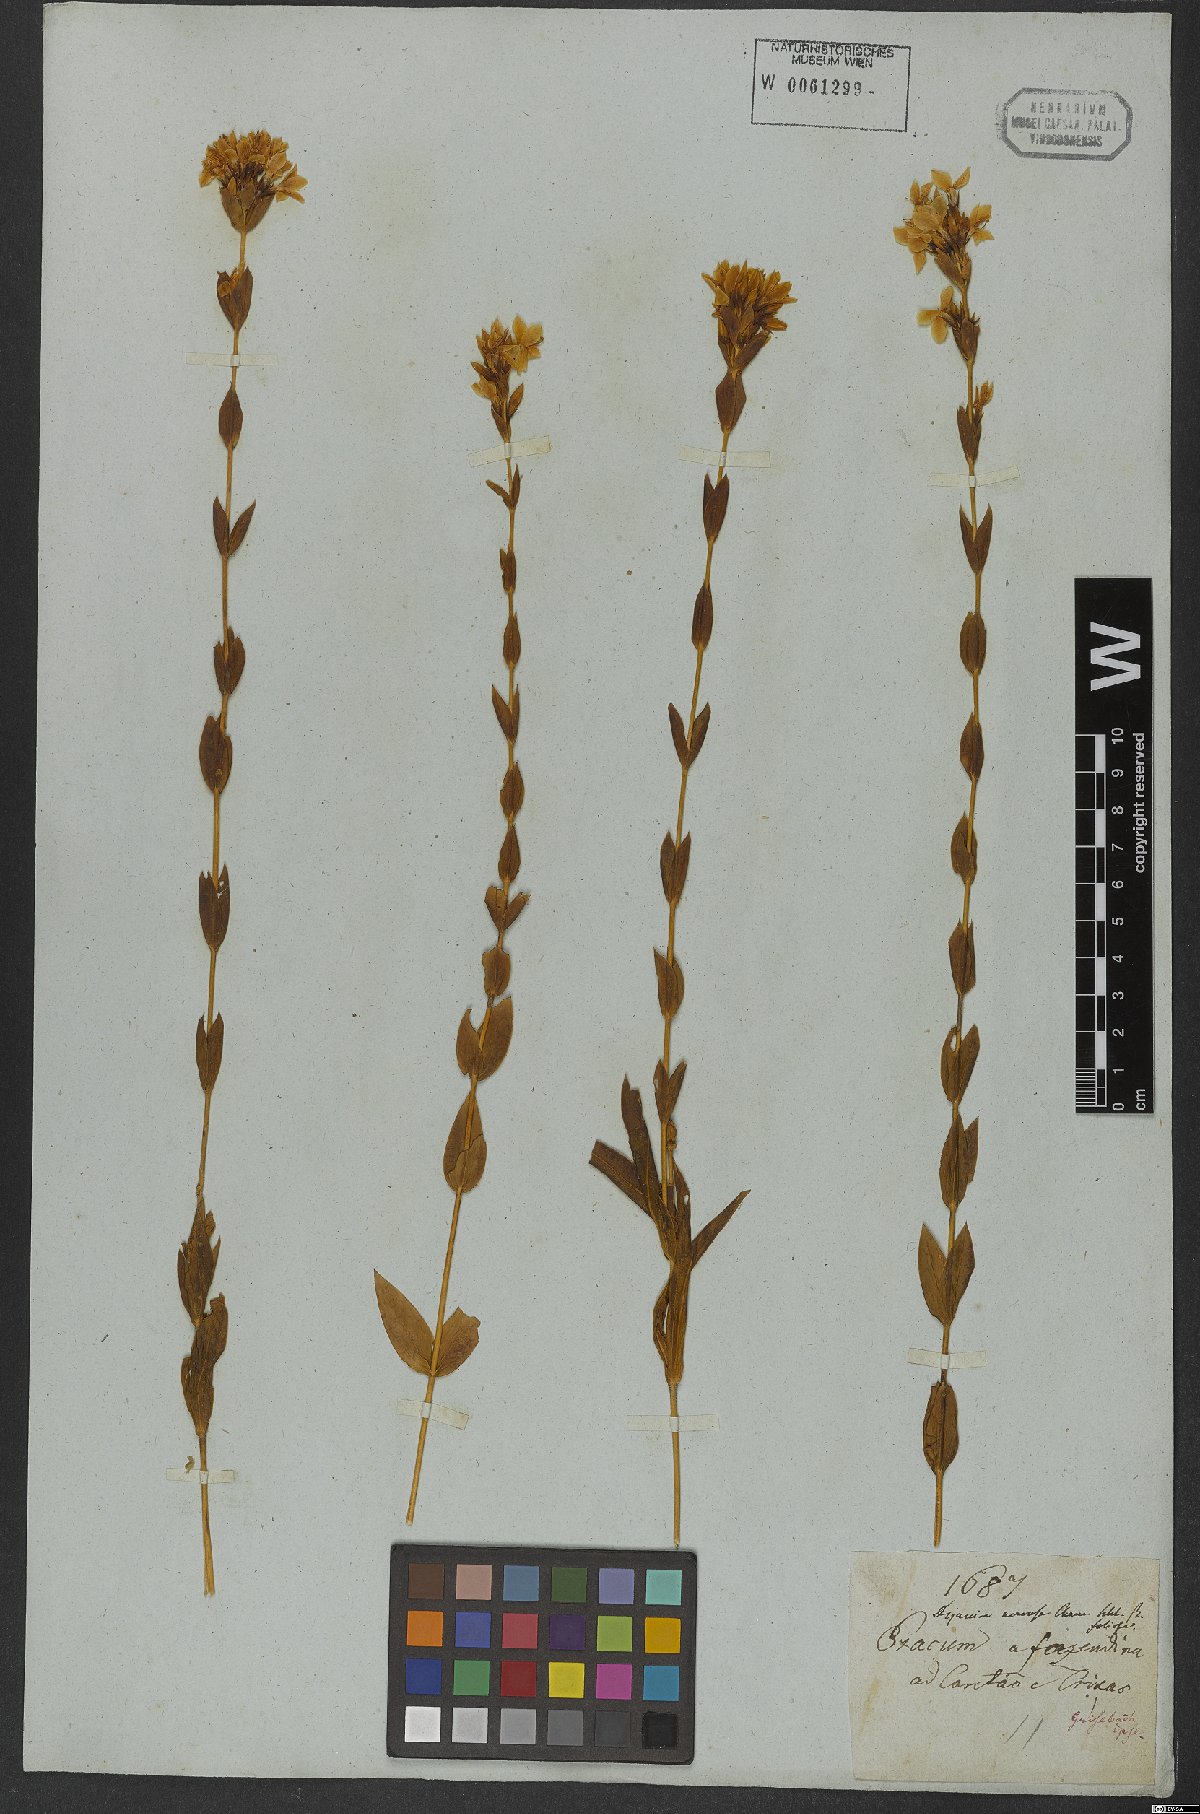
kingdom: Plantae
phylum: Tracheophyta
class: Magnoliopsida
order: Gentianales
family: Gentianaceae
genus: Deianira
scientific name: Deianira nervosa
